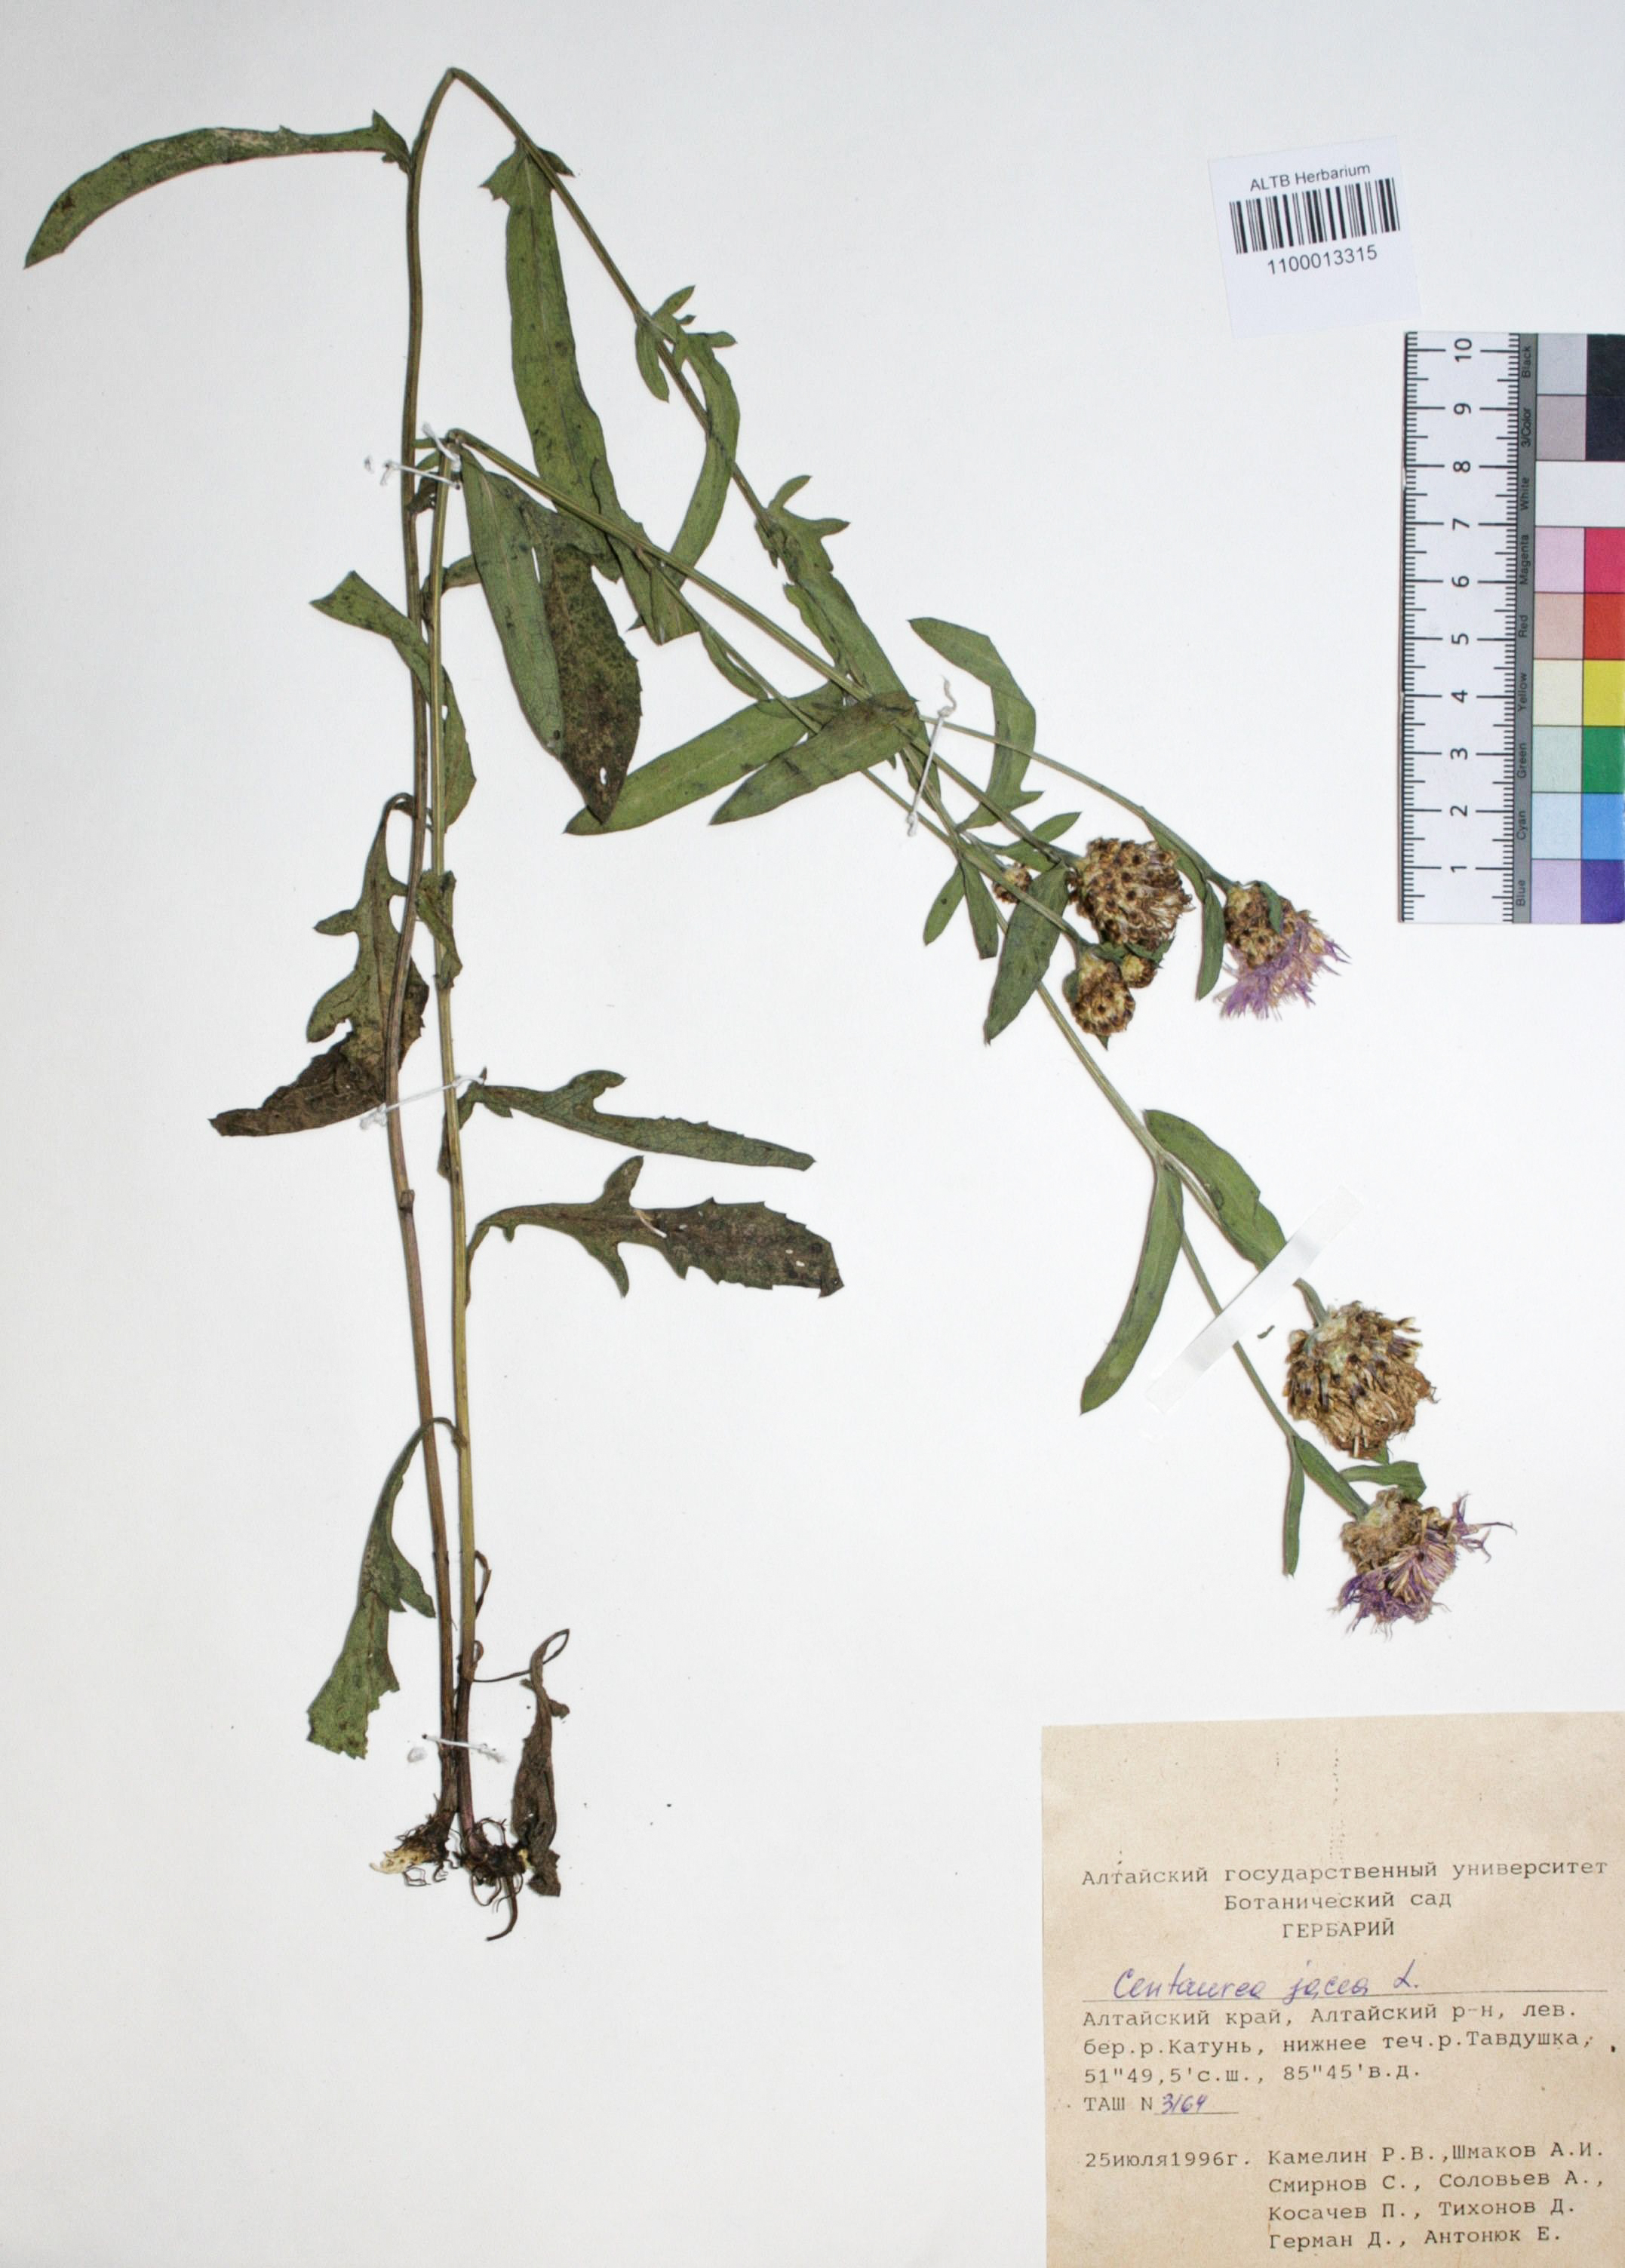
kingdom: Plantae
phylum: Tracheophyta
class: Magnoliopsida
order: Asterales
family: Asteraceae
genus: Centaurea
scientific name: Centaurea jacea
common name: Brown knapweed
